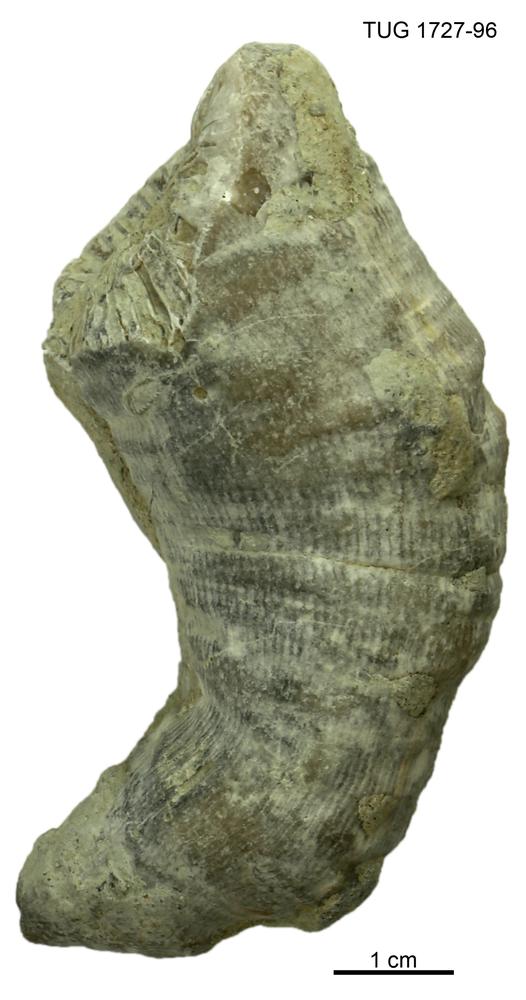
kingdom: Animalia
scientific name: Animalia
